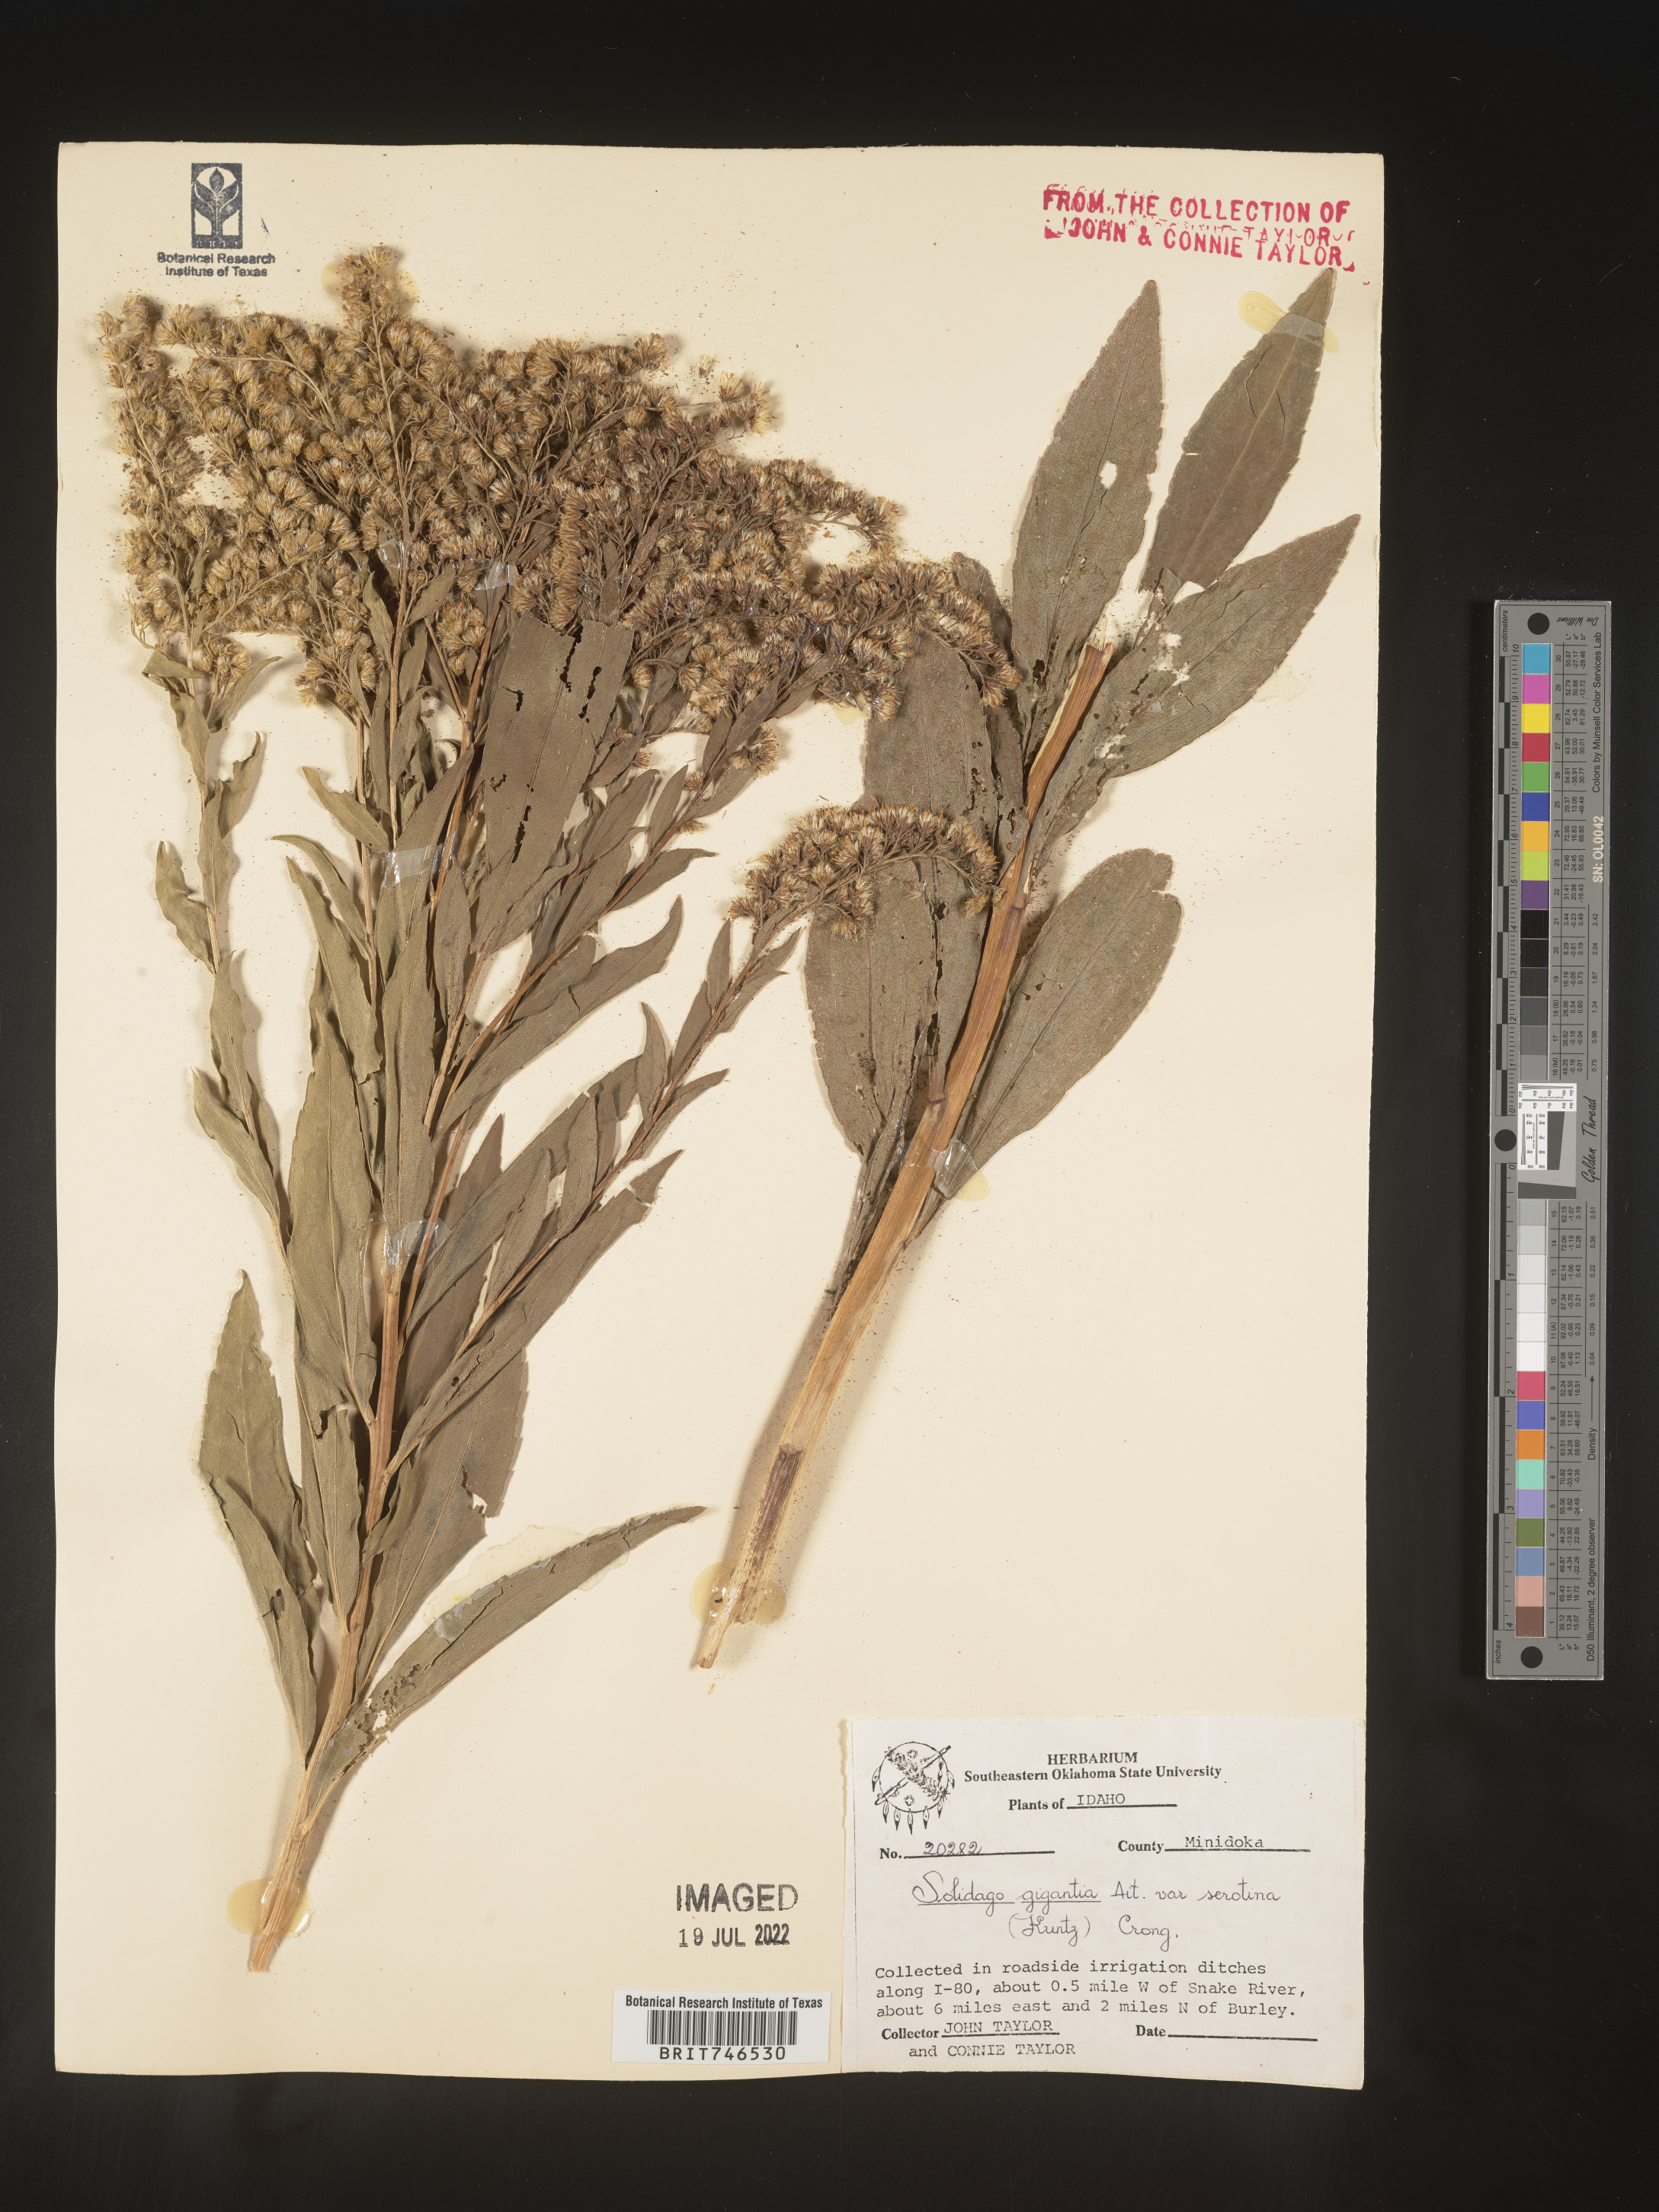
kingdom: Plantae
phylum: Tracheophyta
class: Magnoliopsida
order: Asterales
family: Asteraceae
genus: Solidago
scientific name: Solidago gigantea
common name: Giant goldenrod
